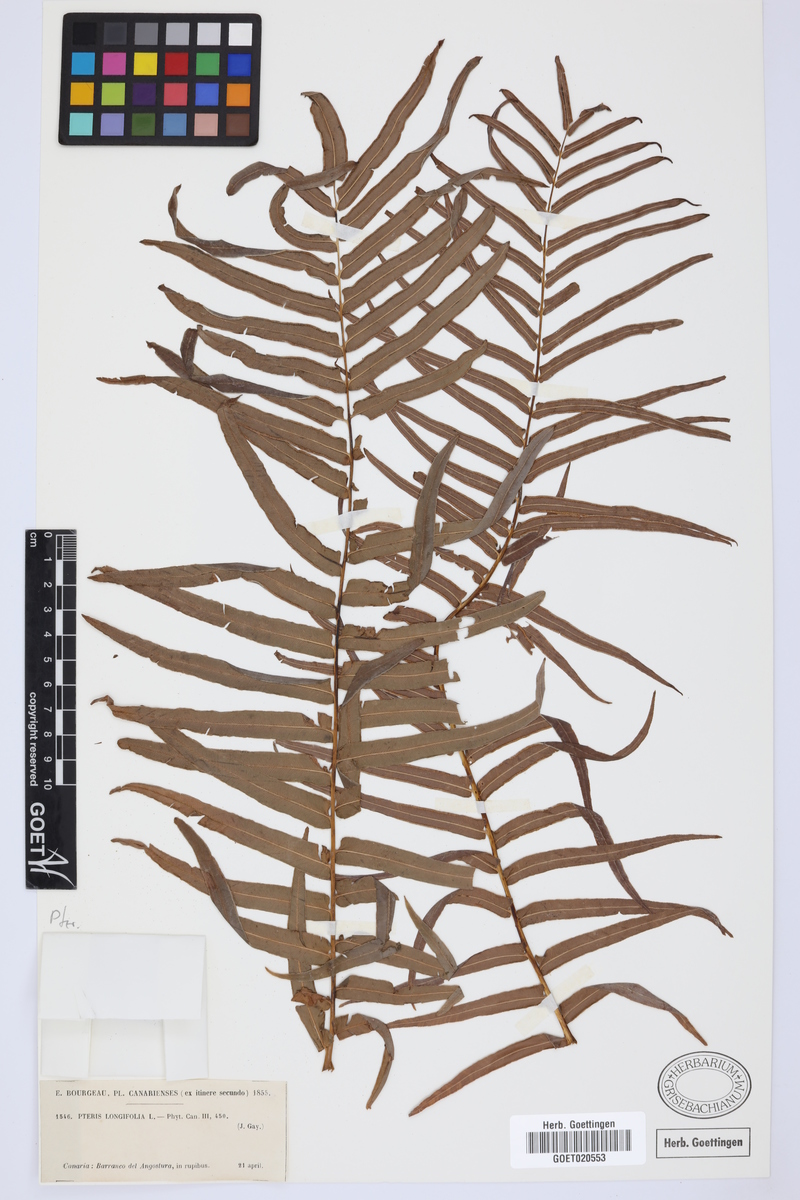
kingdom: Plantae
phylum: Tracheophyta
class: Polypodiopsida
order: Polypodiales
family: Pteridaceae
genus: Pteris
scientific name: Pteris vittata
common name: Ladder brake
